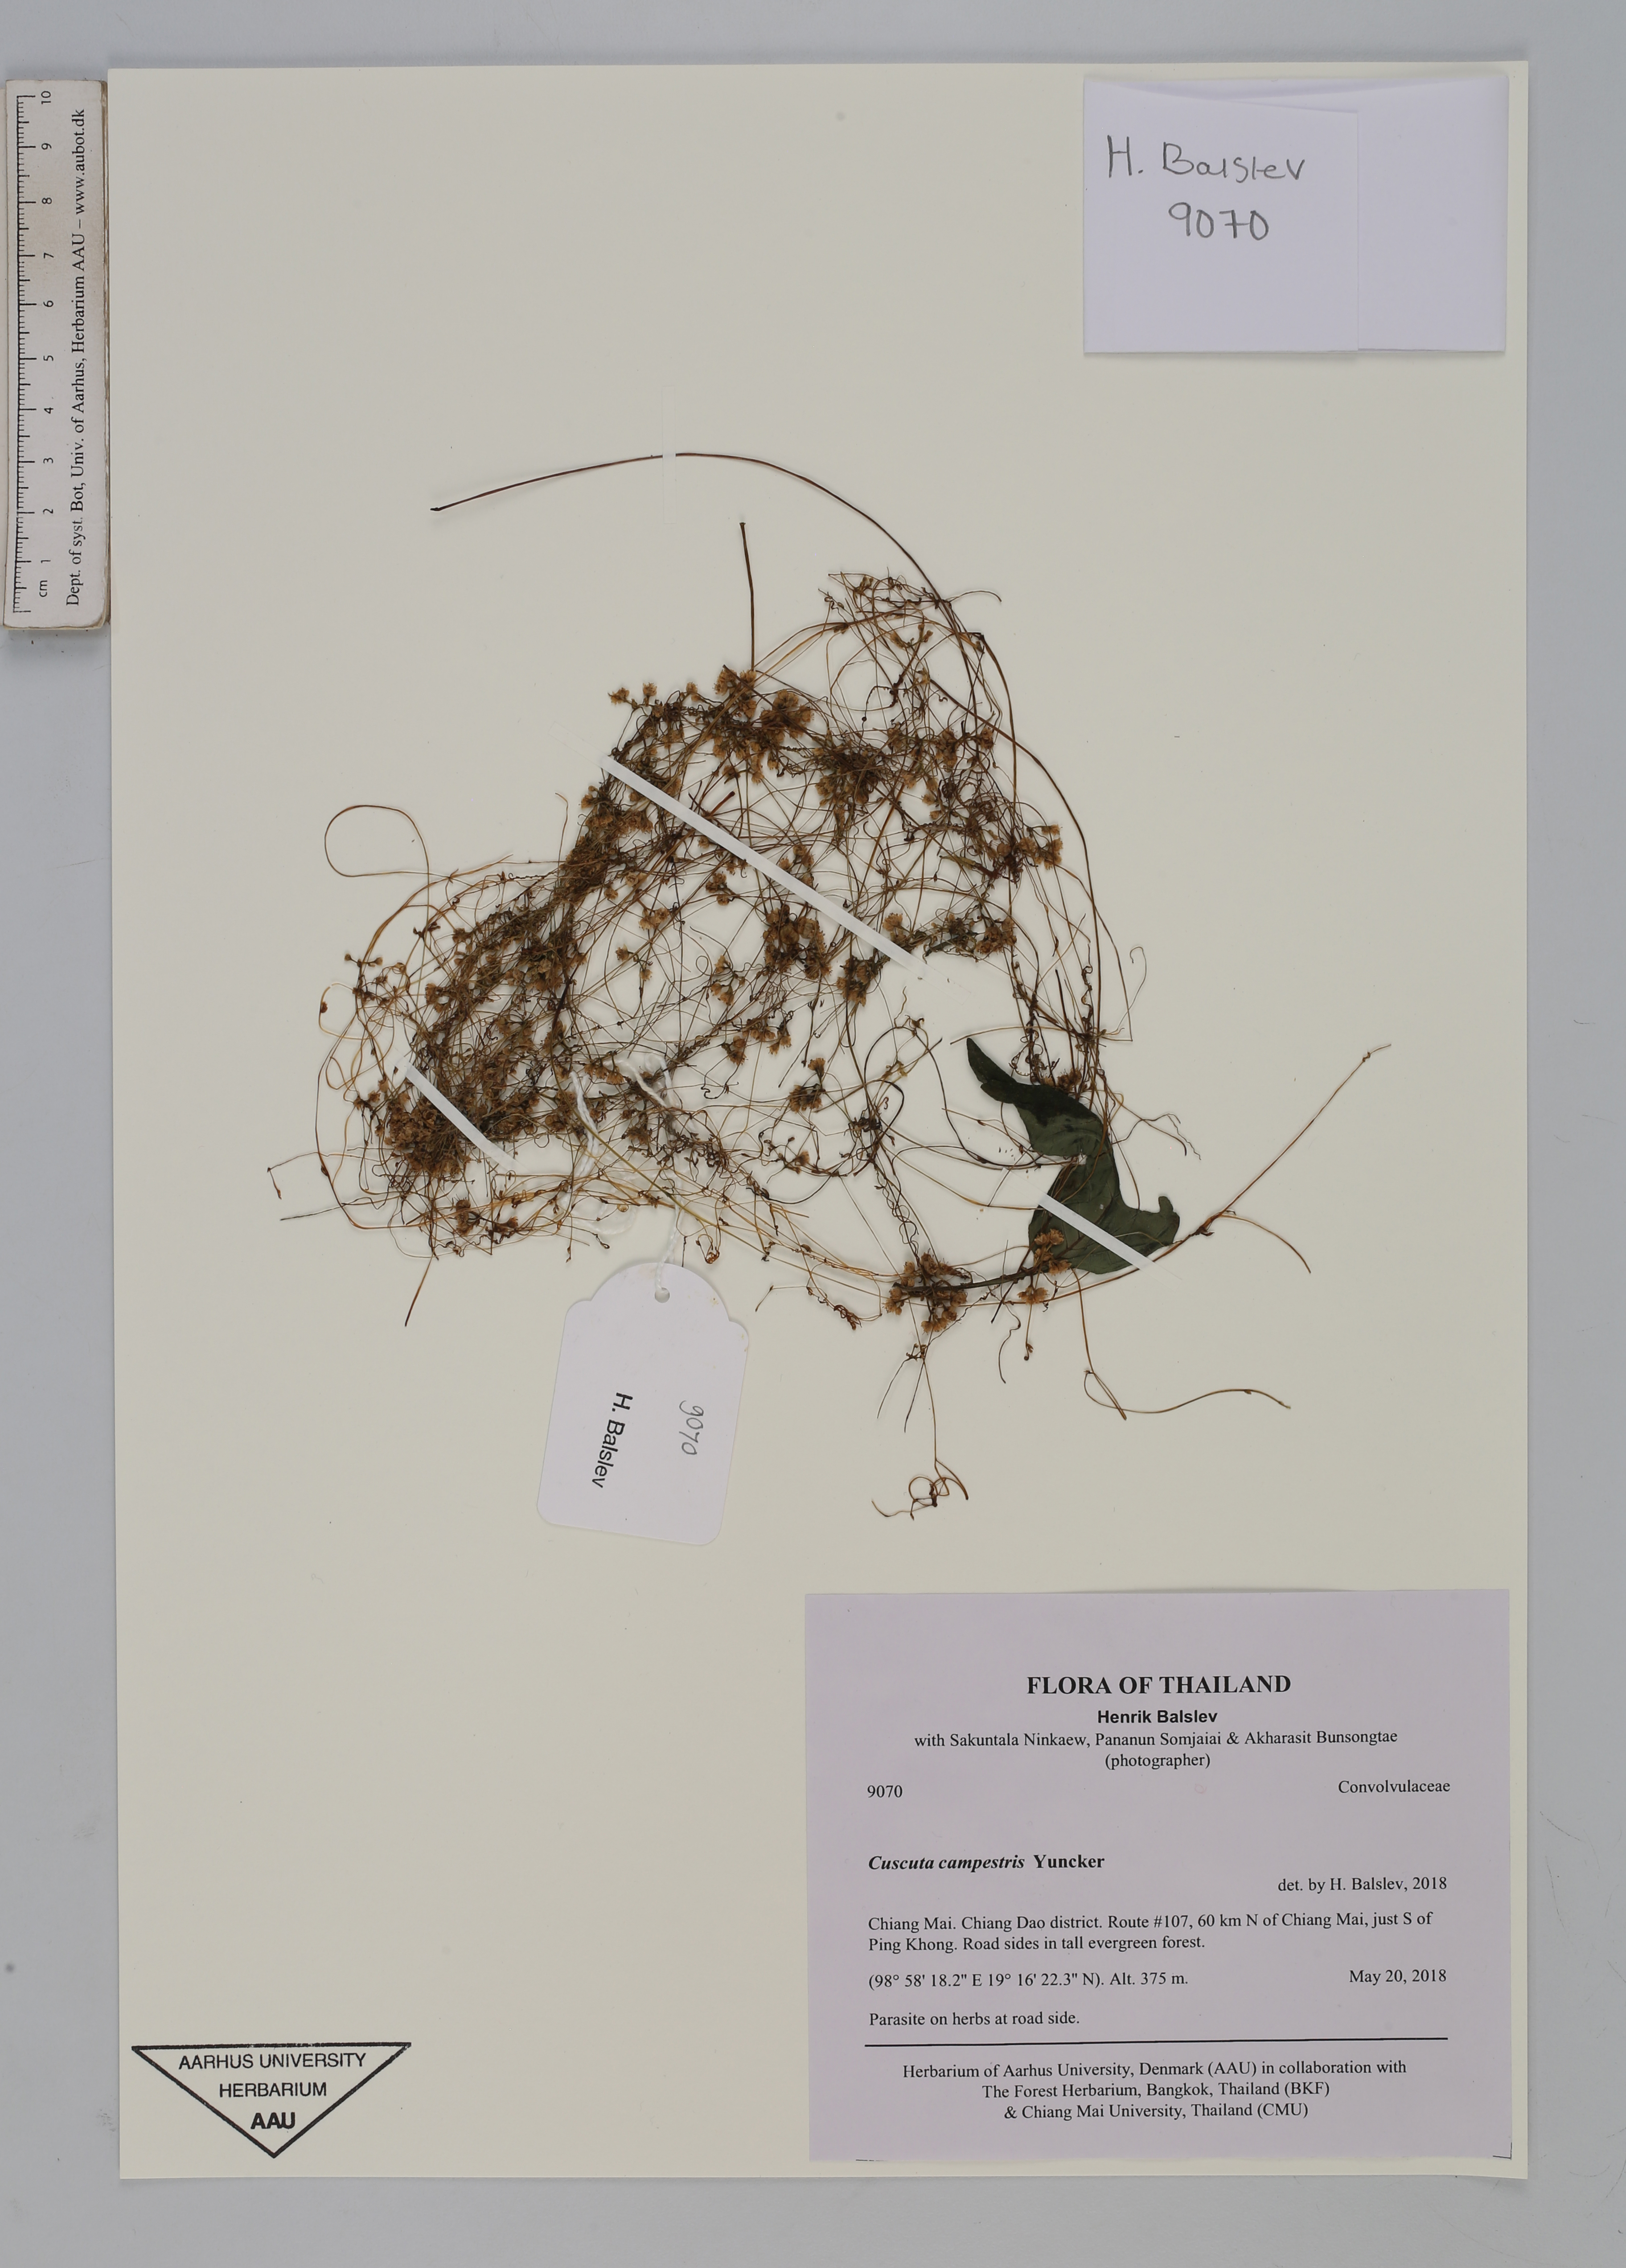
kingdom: Plantae
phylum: Tracheophyta
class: Magnoliopsida
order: Solanales
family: Convolvulaceae
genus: Cuscuta
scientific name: Cuscuta campestris
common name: Yellow dodder
